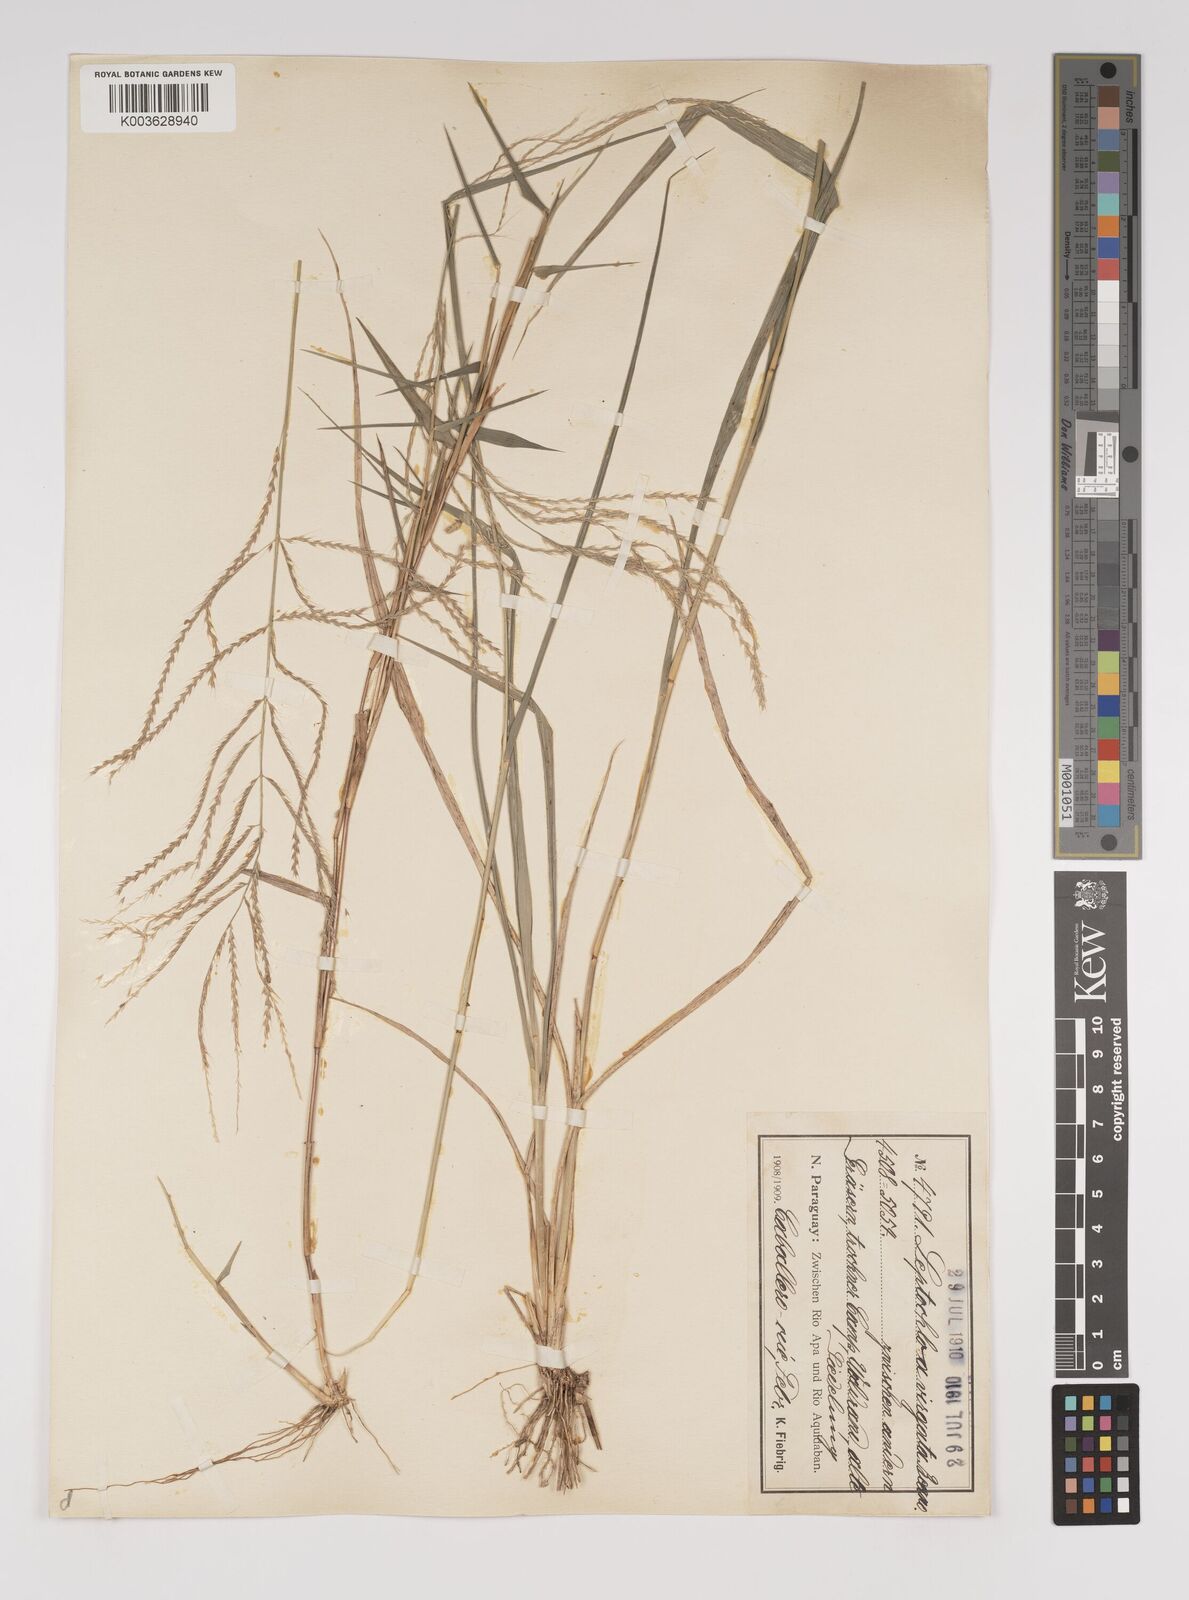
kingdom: Plantae
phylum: Tracheophyta
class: Liliopsida
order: Poales
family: Poaceae
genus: Leptochloa
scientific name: Leptochloa virgata
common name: Tropical sprangletop
